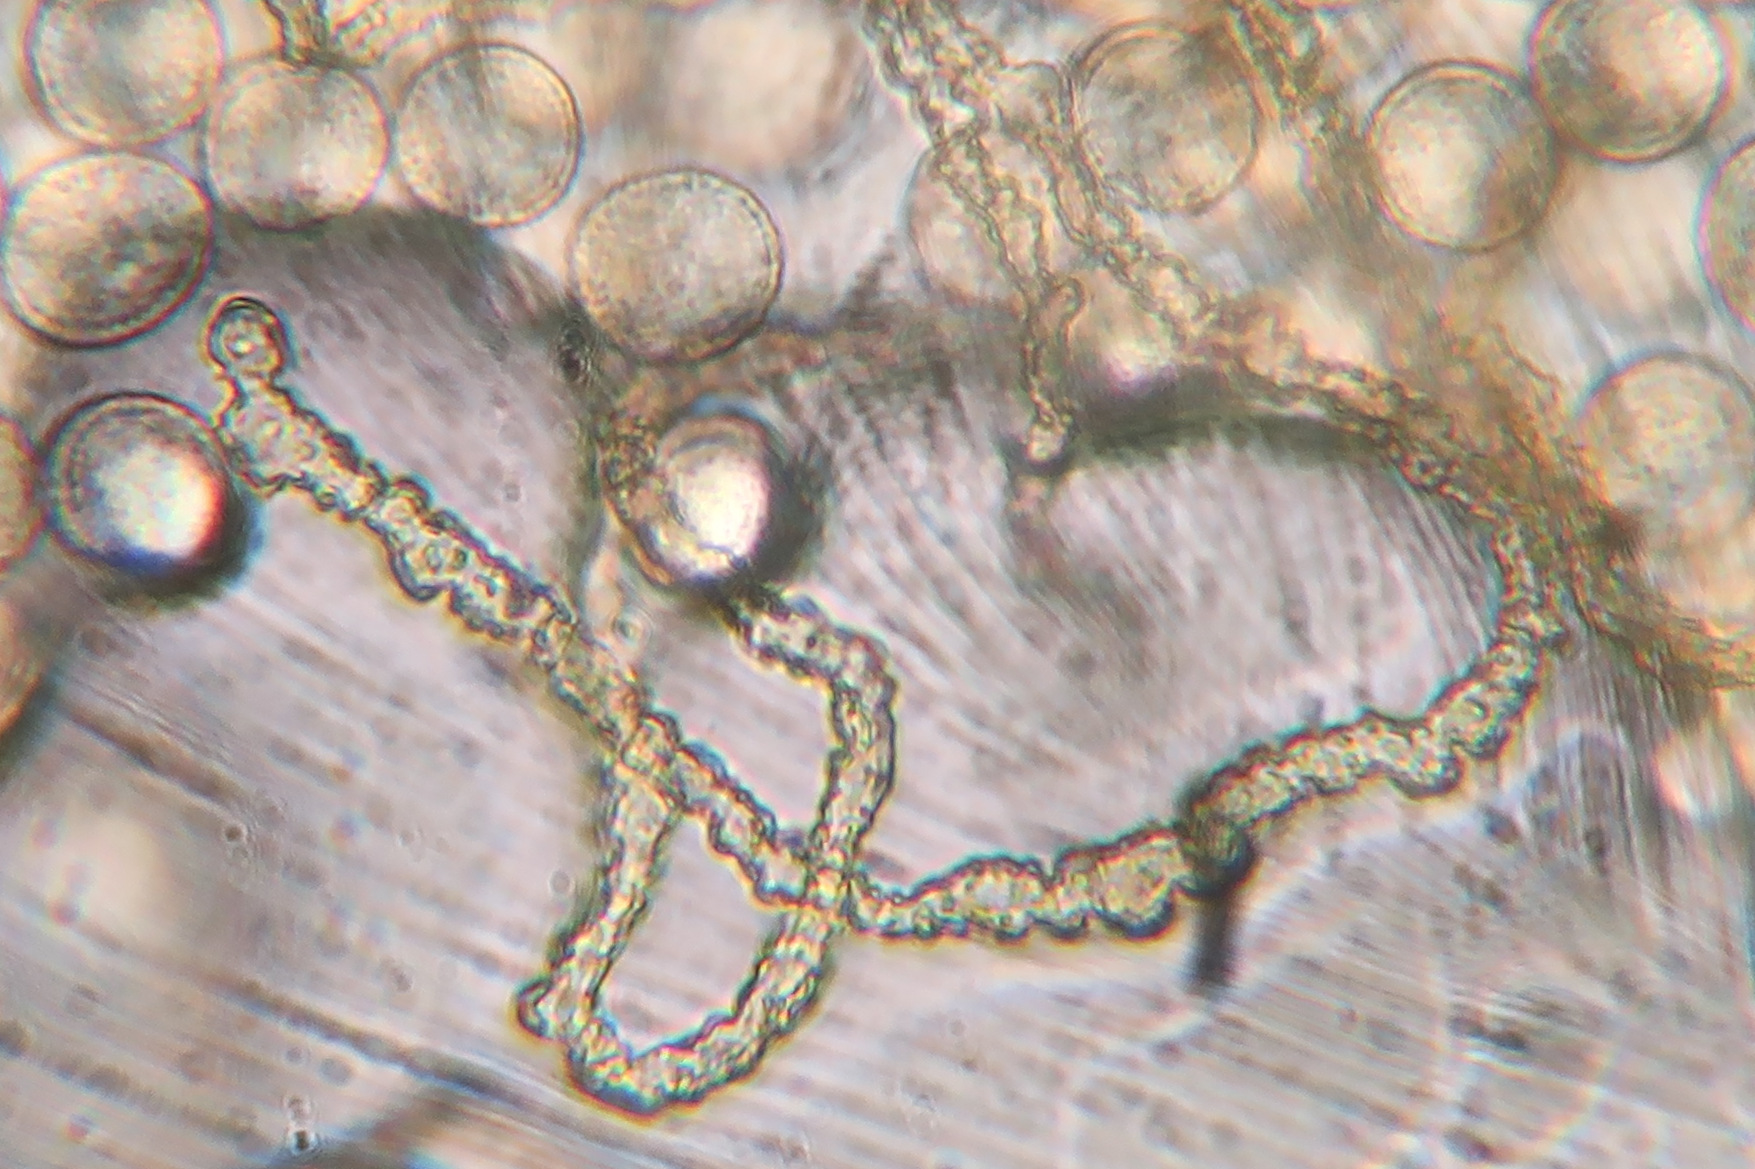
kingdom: Protozoa
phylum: Mycetozoa
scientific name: Mycetozoa
